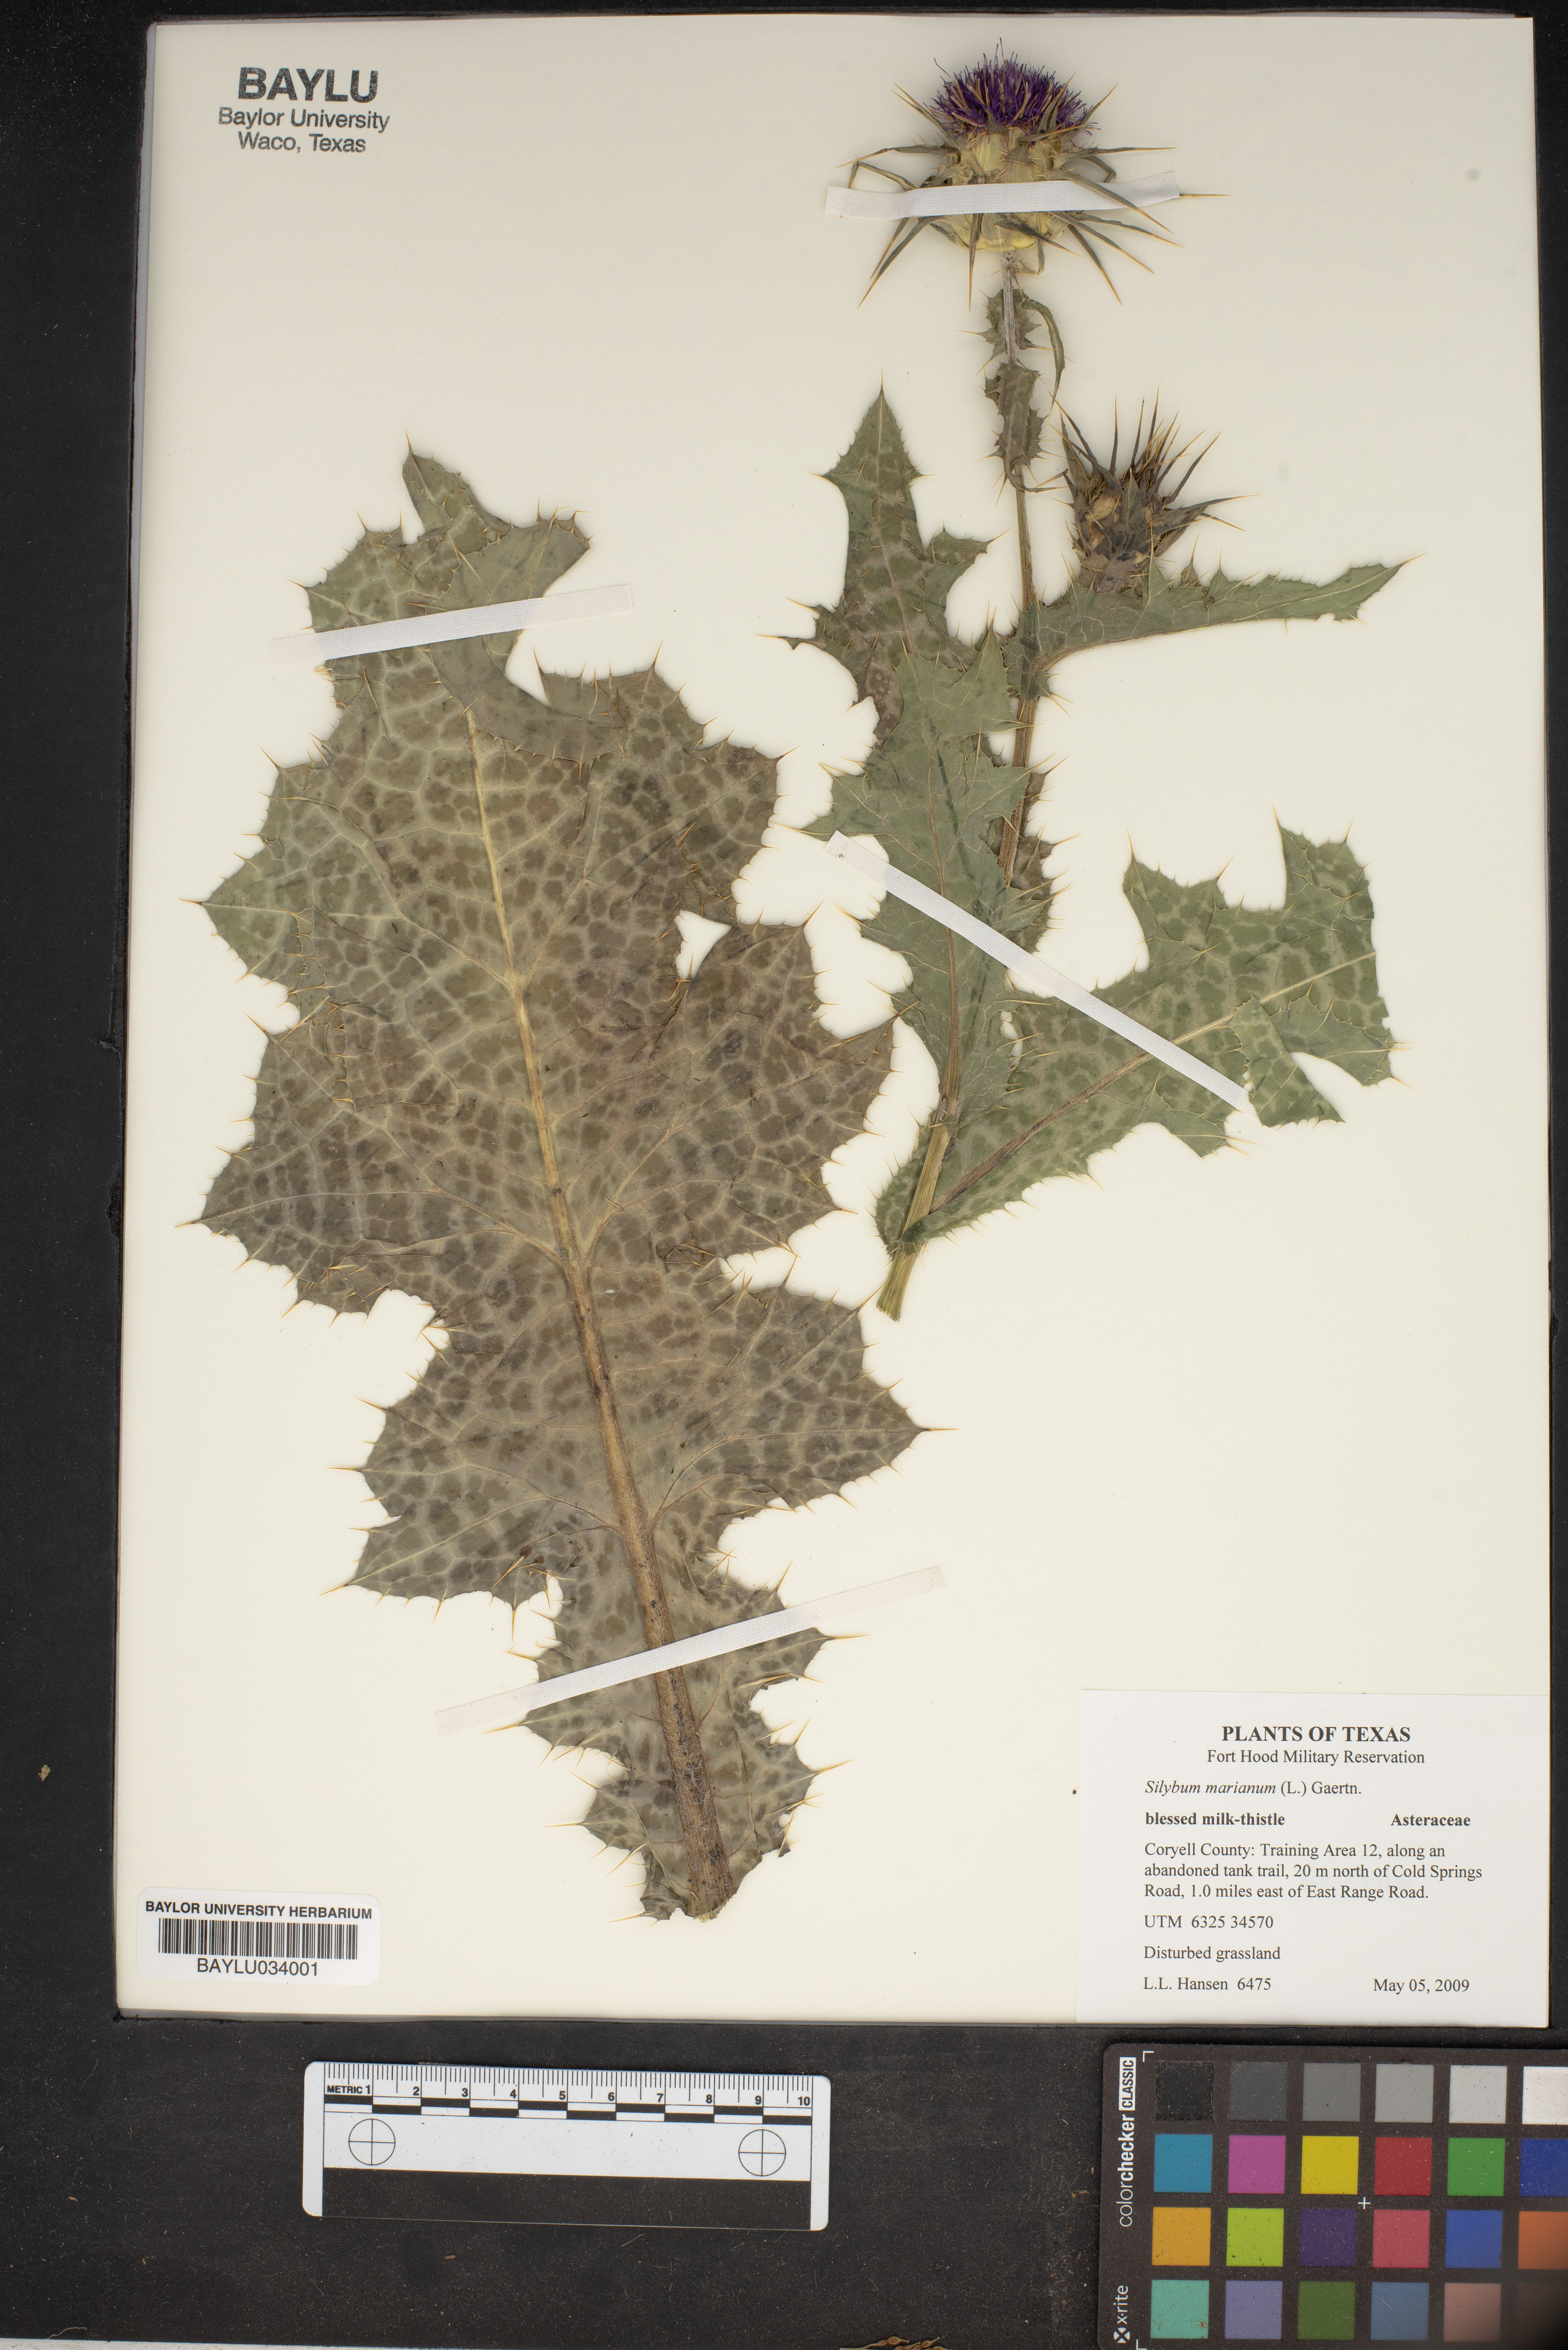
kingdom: Plantae
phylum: Tracheophyta
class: Magnoliopsida
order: Asterales
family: Asteraceae
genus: Silybum
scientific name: Silybum marianum
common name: Milk thistle
